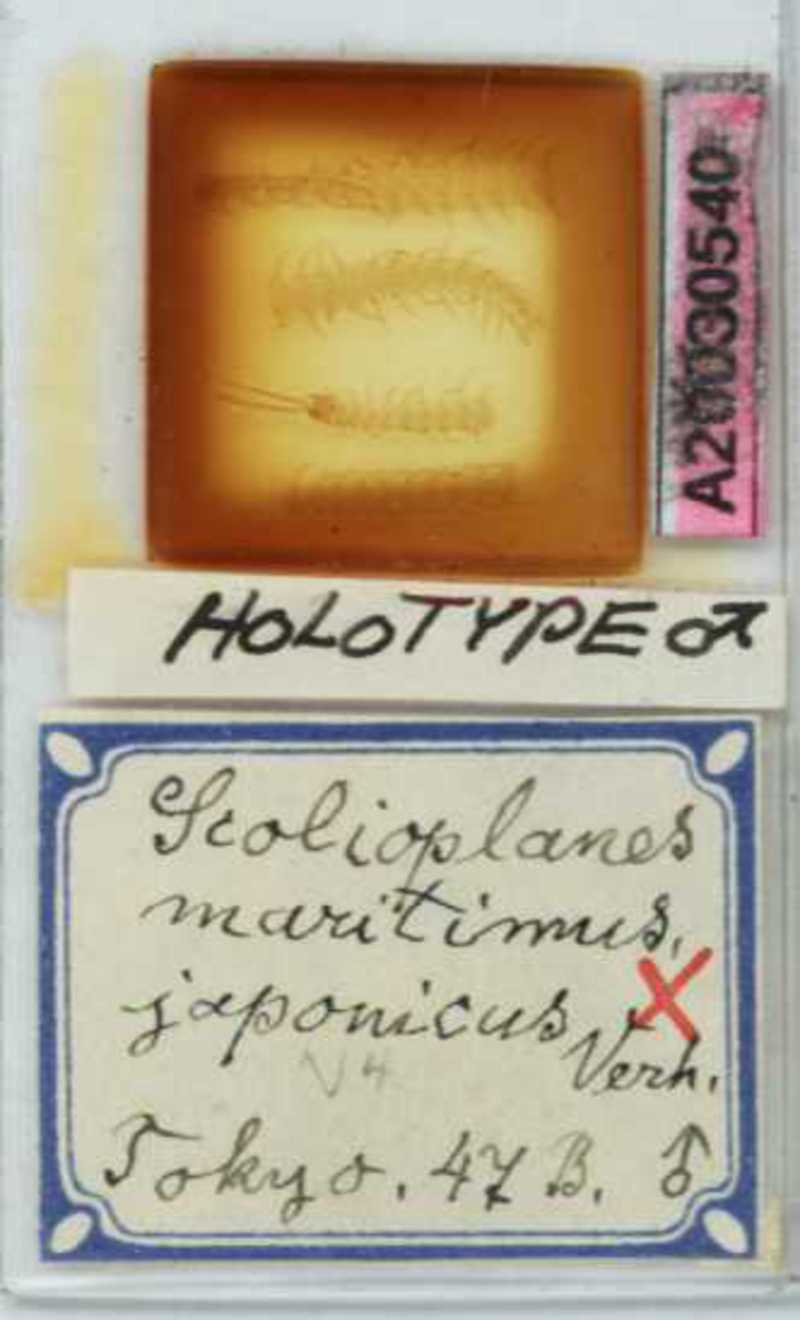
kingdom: Animalia
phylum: Arthropoda
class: Chilopoda
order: Geophilomorpha
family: Linotaeniidae
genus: Strigamia
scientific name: Strigamia maritima
